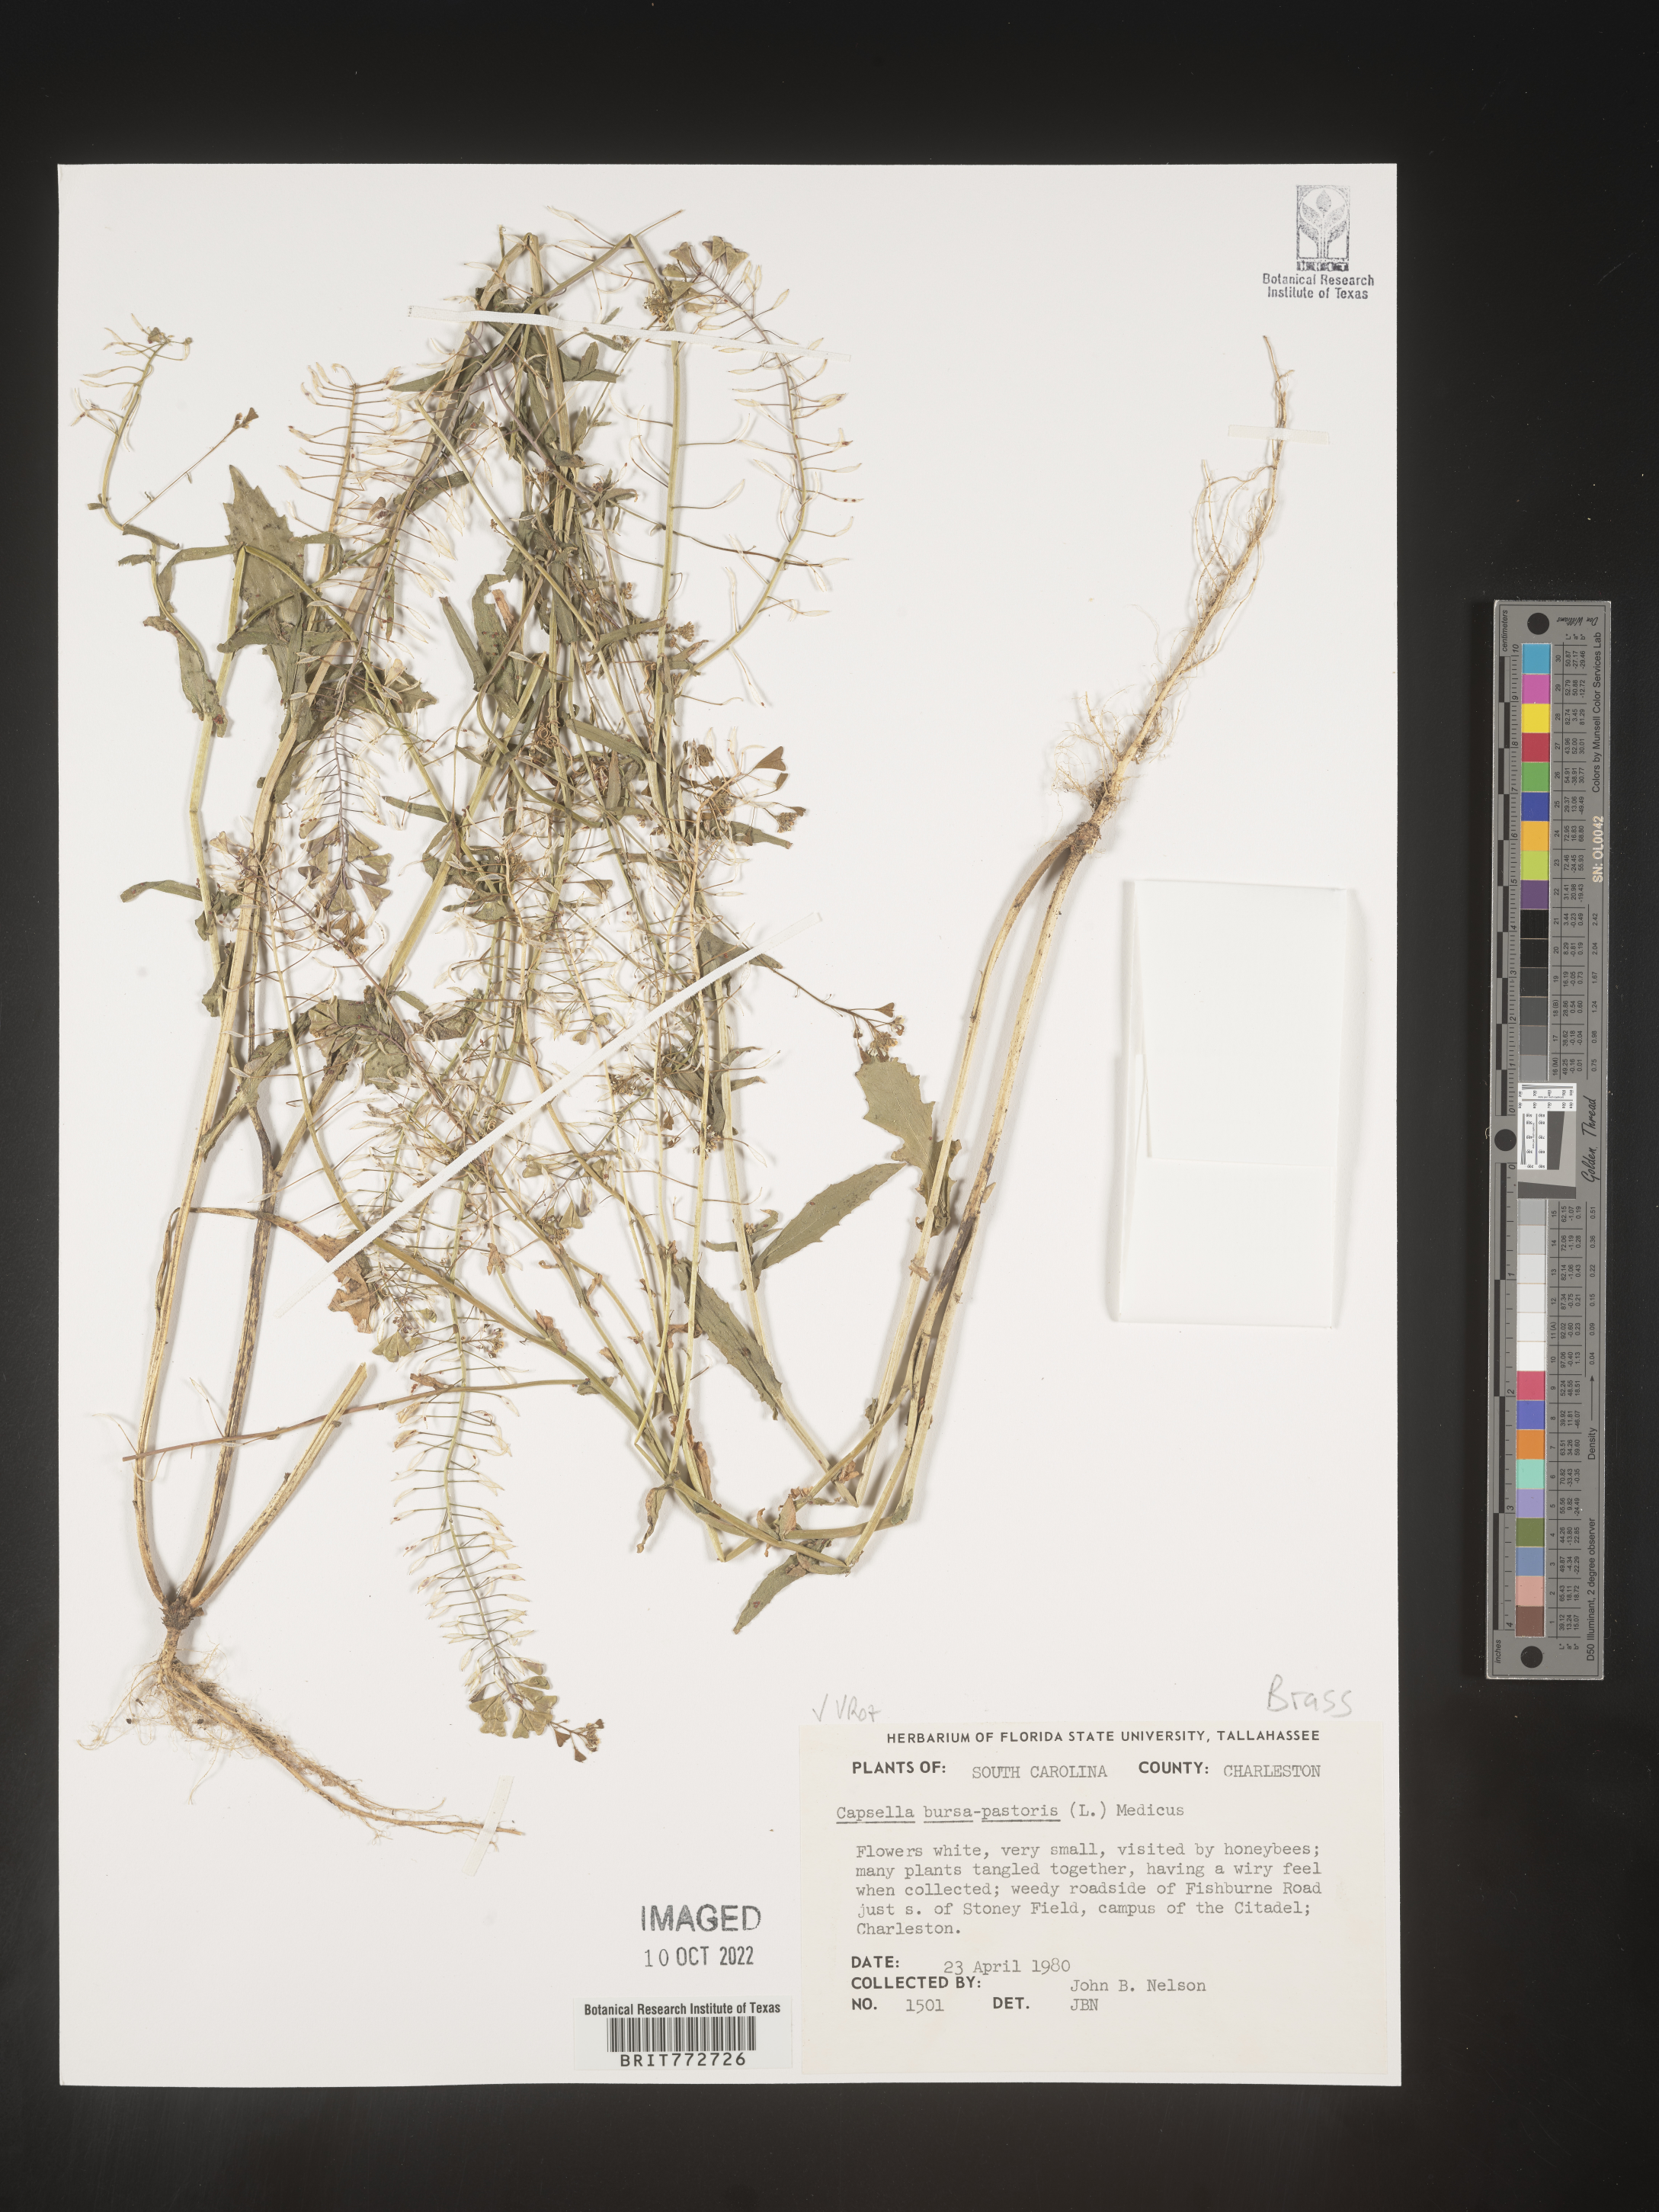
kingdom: Plantae
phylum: Tracheophyta
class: Magnoliopsida
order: Brassicales
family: Brassicaceae
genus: Capsella
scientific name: Capsella bursa-pastoris
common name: Shepherd's purse
